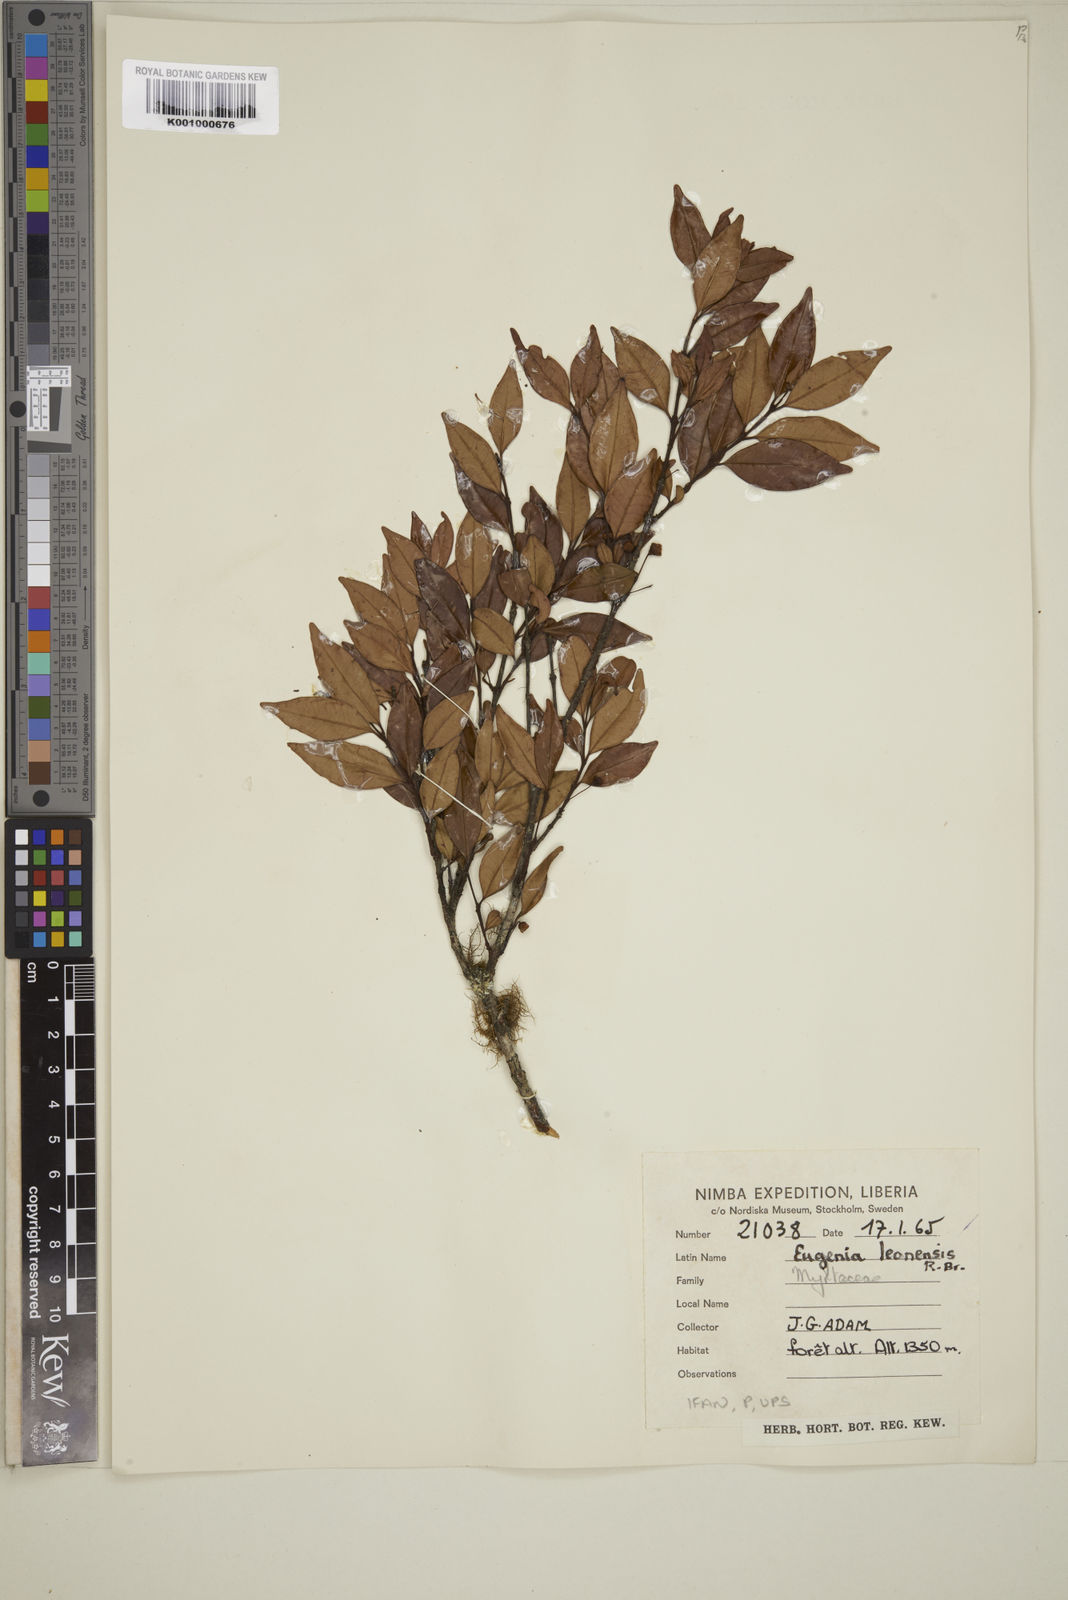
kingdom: Plantae
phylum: Tracheophyta
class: Magnoliopsida
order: Myrtales
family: Myrtaceae
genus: Eugenia
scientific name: Eugenia leonensis
